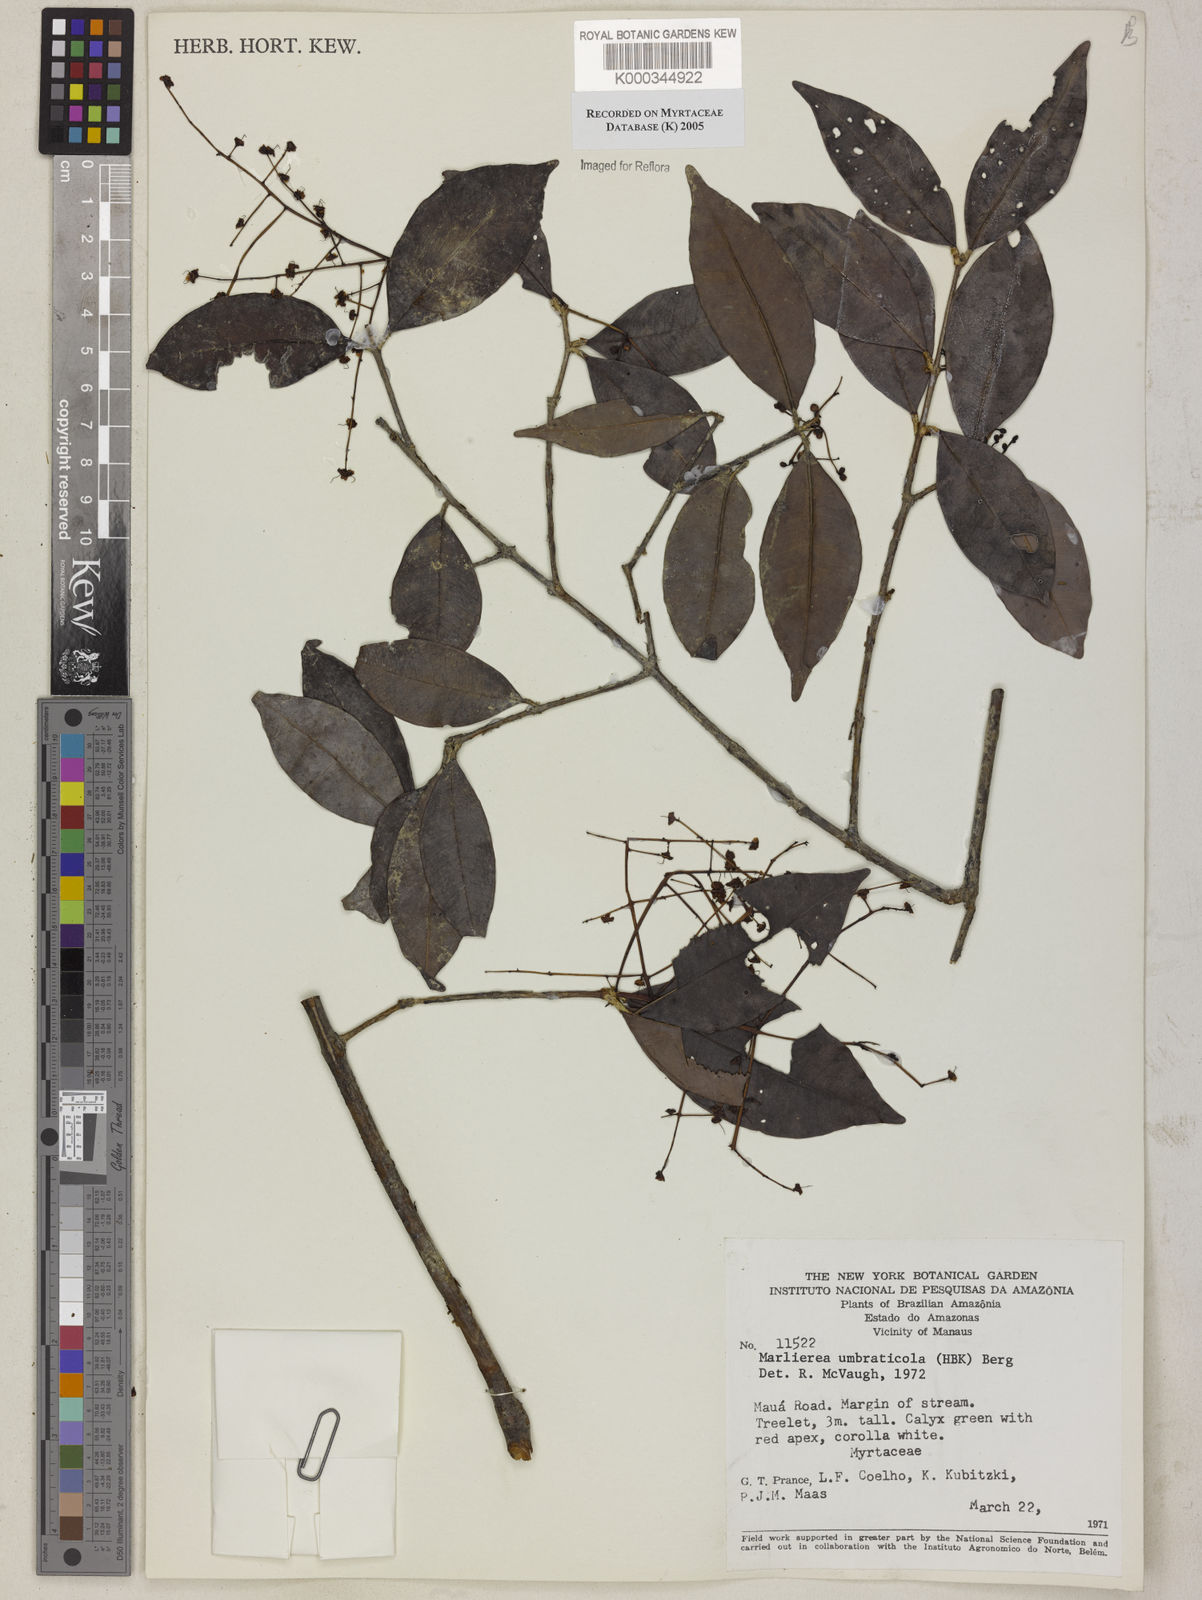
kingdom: Plantae
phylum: Tracheophyta
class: Magnoliopsida
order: Myrtales
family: Myrtaceae
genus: Myrcia
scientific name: Myrcia
